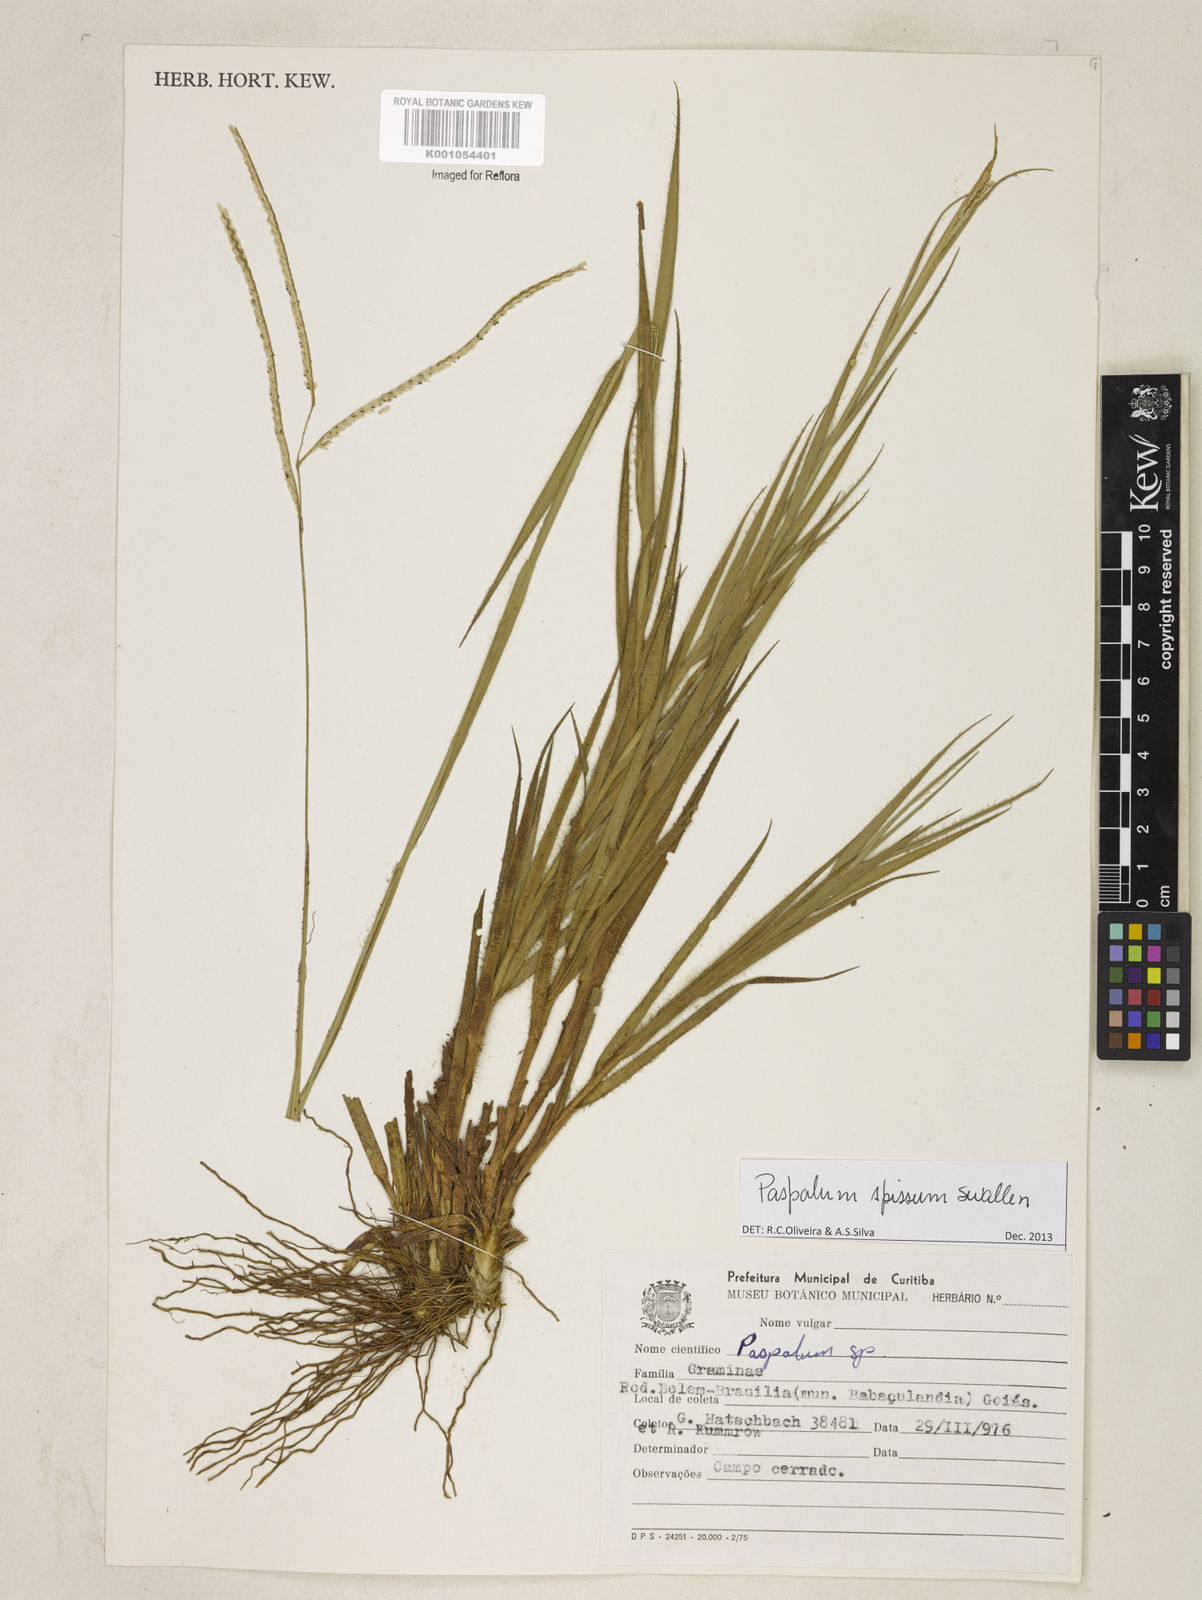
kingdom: Plantae
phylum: Tracheophyta
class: Liliopsida
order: Poales
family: Poaceae
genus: Paspalum
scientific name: Paspalum carinatum
